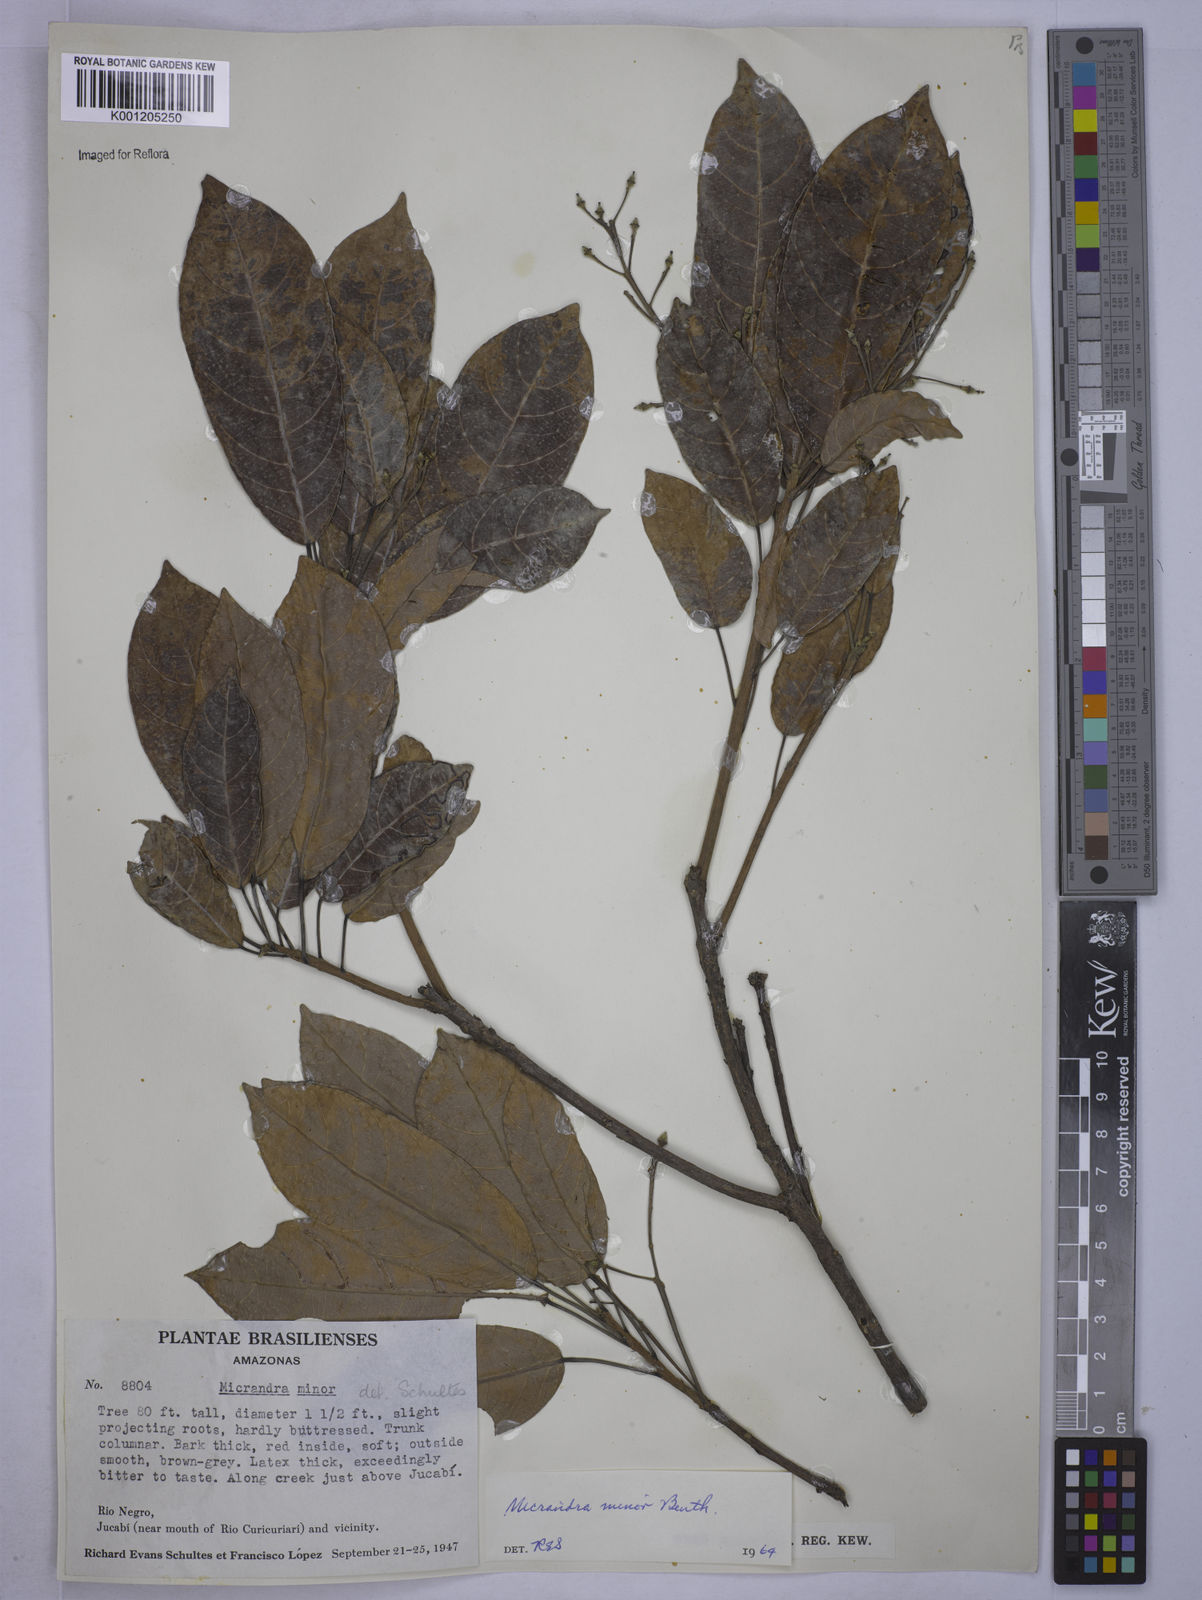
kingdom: Plantae
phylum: Tracheophyta
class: Magnoliopsida
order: Malpighiales
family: Euphorbiaceae
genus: Micrandra
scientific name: Micrandra minor
